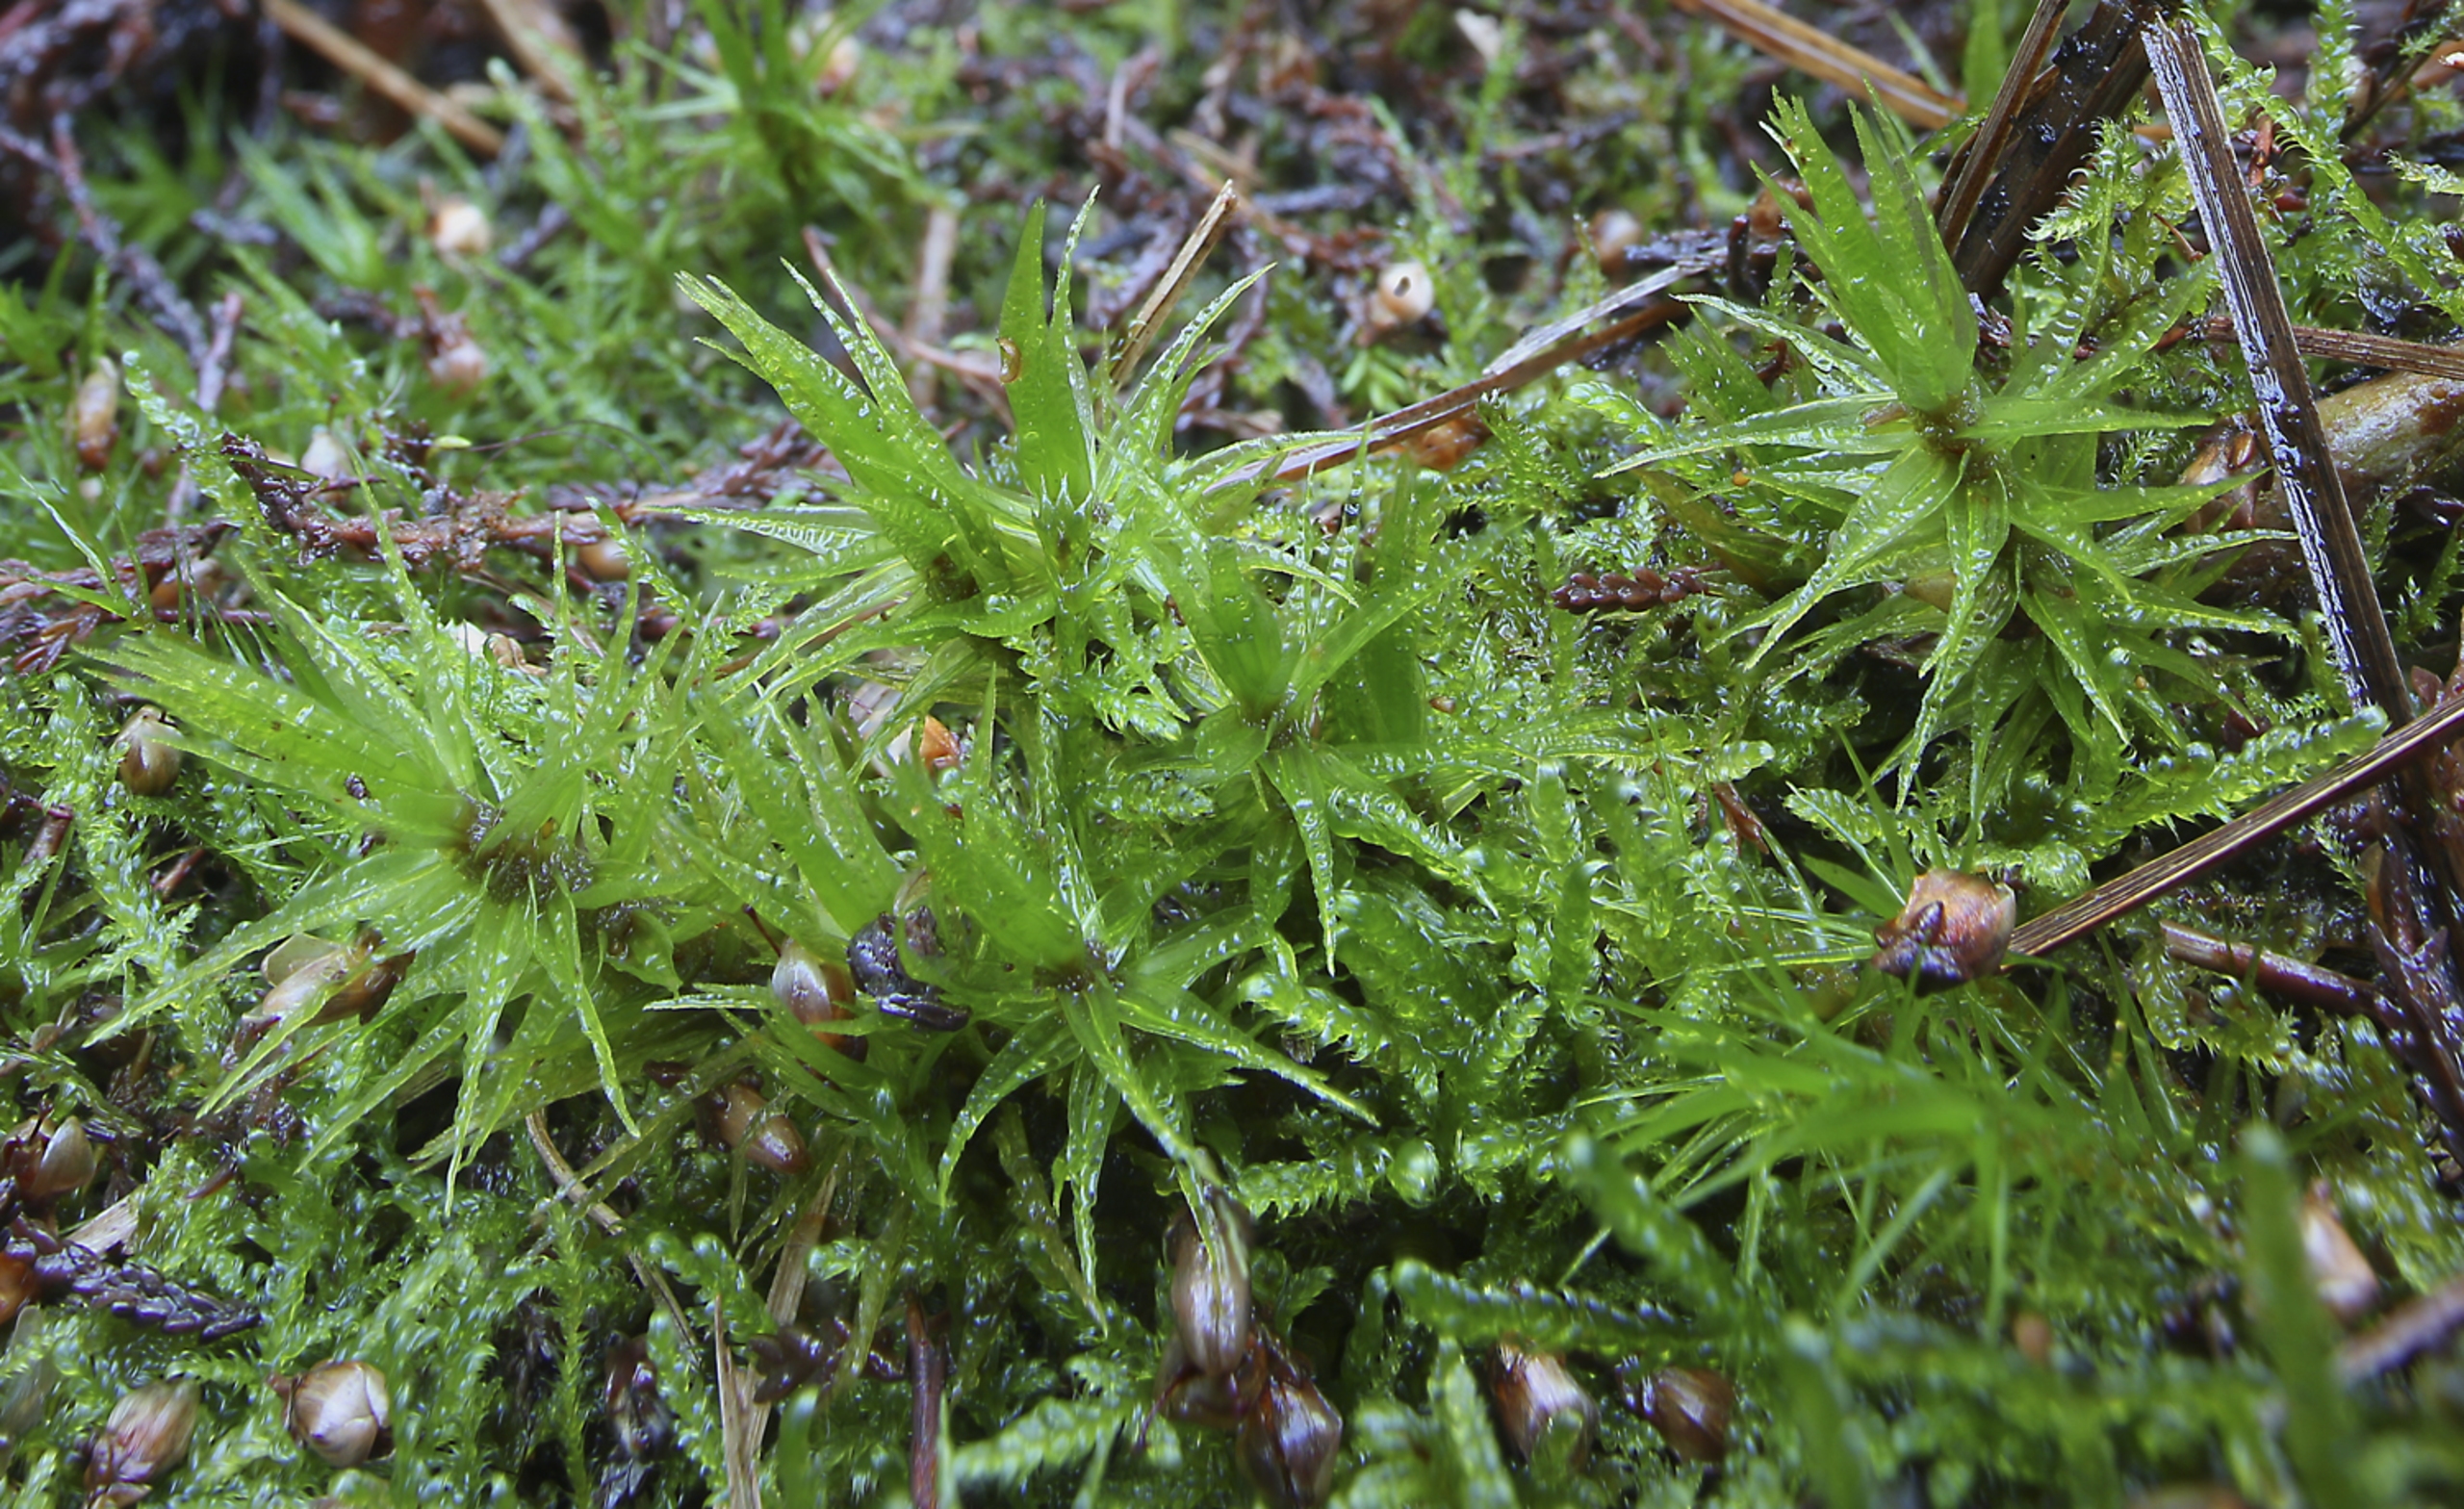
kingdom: Plantae
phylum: Bryophyta
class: Bryopsida
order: Dicranales
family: Dicranaceae
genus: Dicranum
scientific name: Dicranum polysetum
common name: Bølgebladet kløvtand
